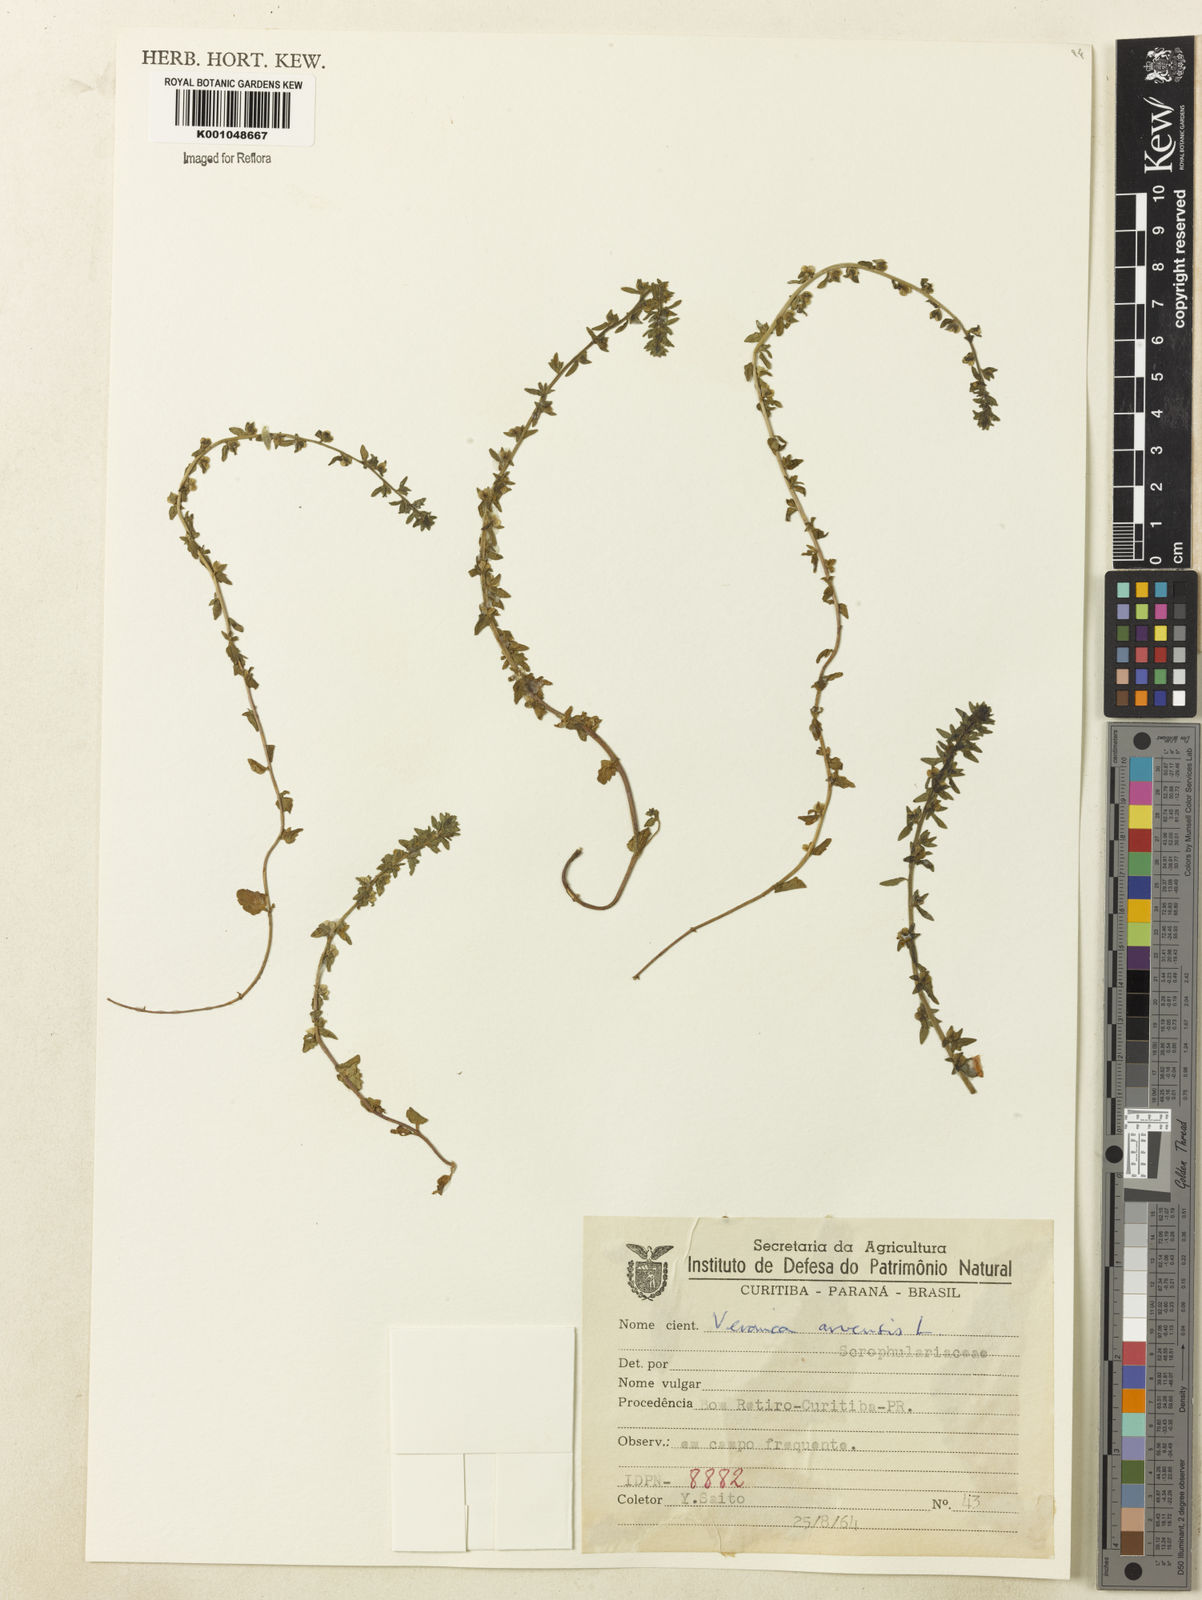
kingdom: Plantae
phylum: Tracheophyta
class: Magnoliopsida
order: Lamiales
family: Plantaginaceae
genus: Veronica
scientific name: Veronica arvensis
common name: Corn speedwell
